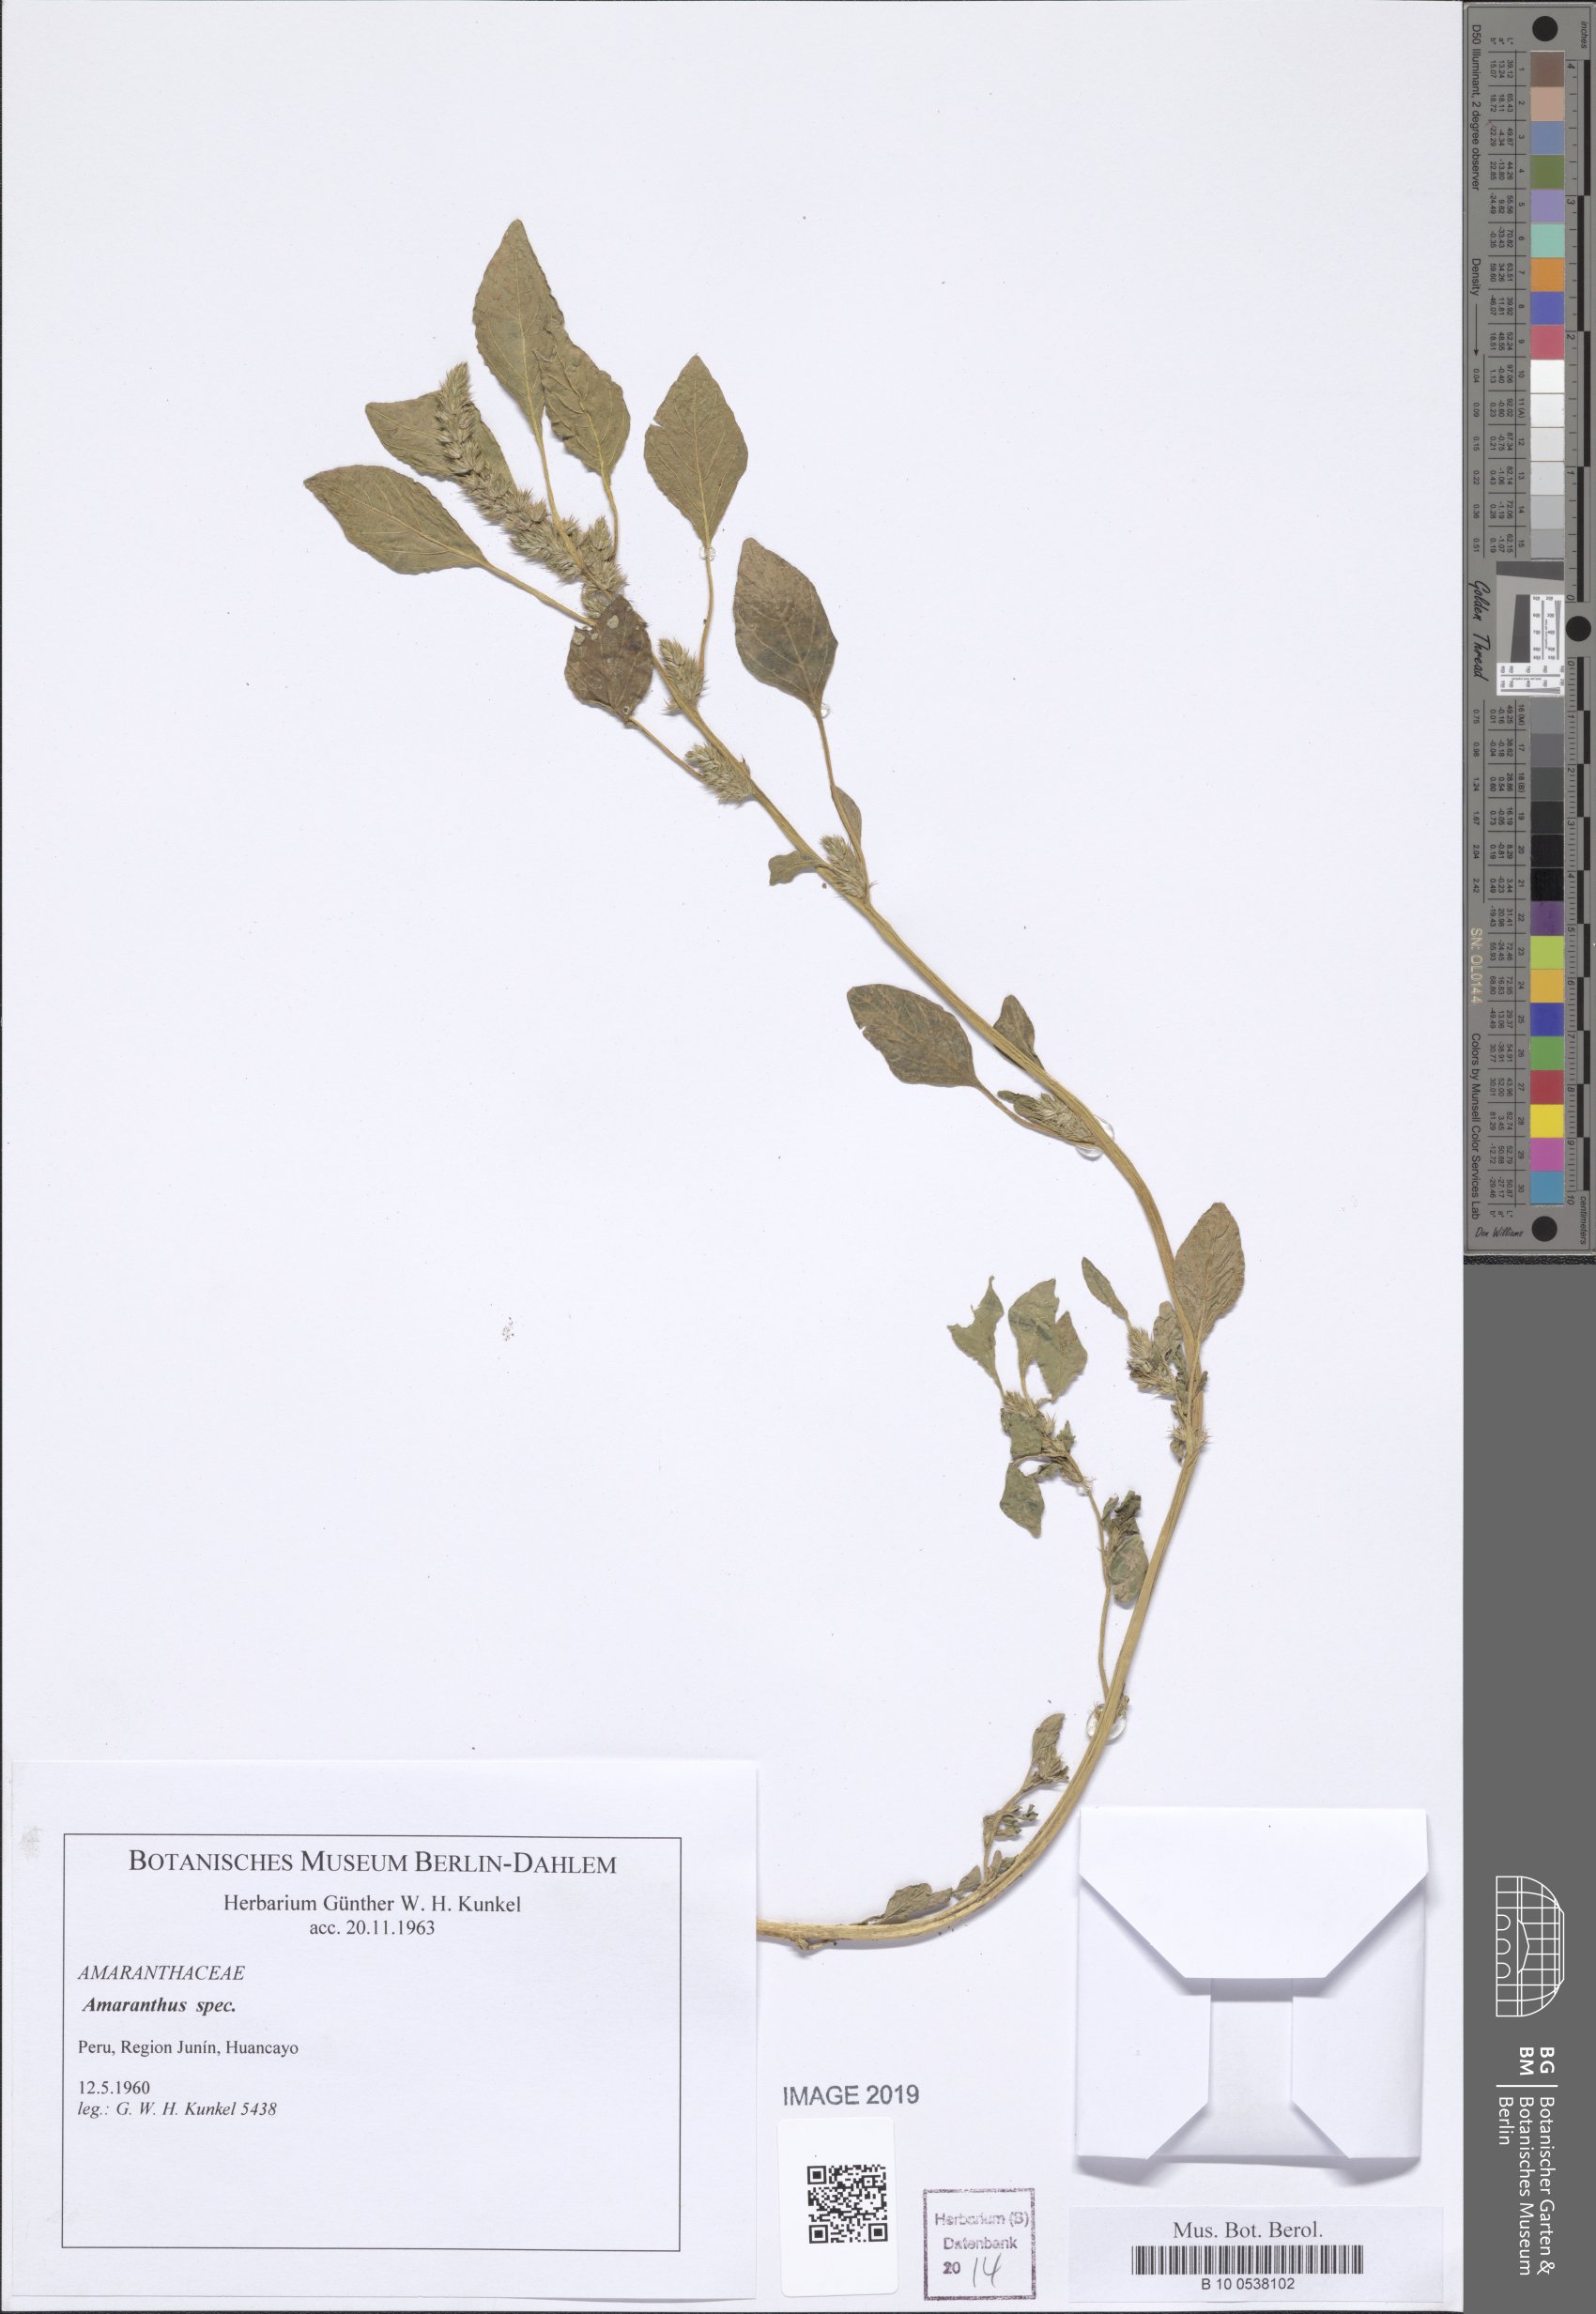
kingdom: Plantae
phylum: Tracheophyta
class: Magnoliopsida
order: Caryophyllales
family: Amaranthaceae
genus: Amaranthus
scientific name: Amaranthus
